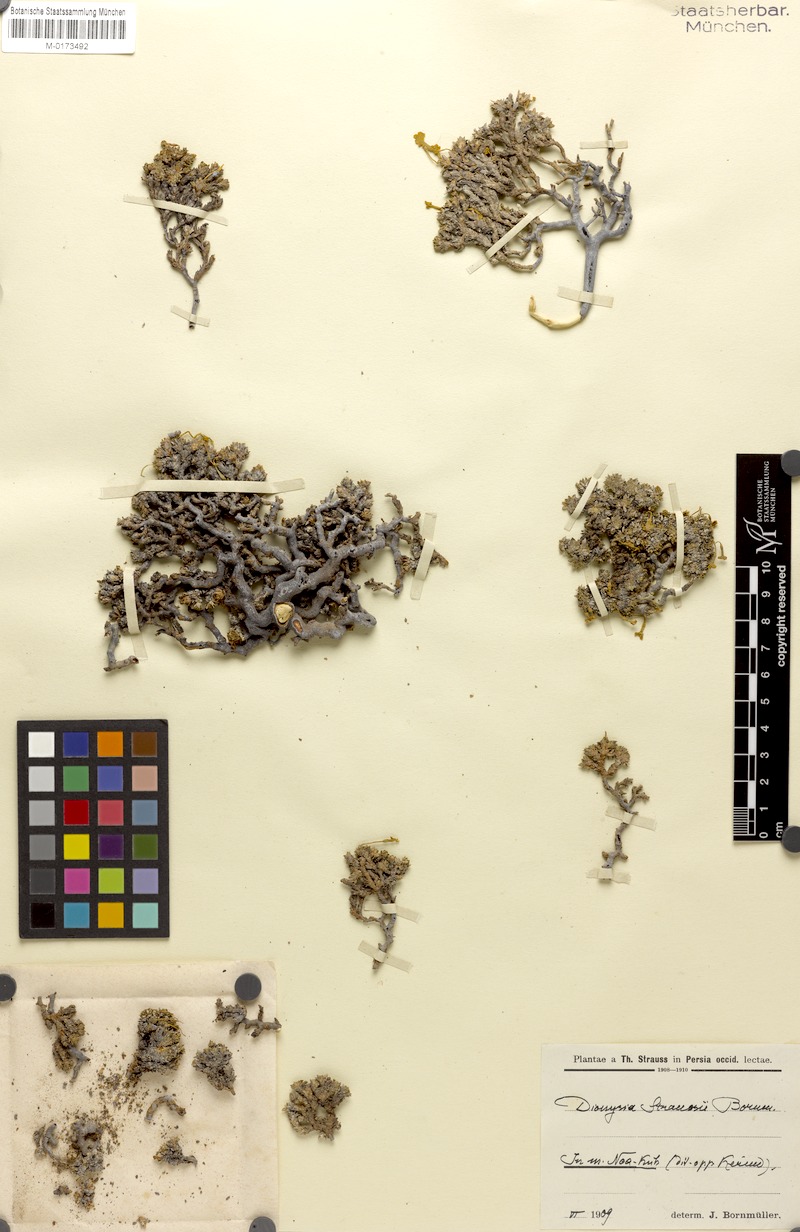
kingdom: Plantae
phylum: Tracheophyta
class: Magnoliopsida
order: Ericales
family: Primulaceae
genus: Dionysia
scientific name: Dionysia odora
